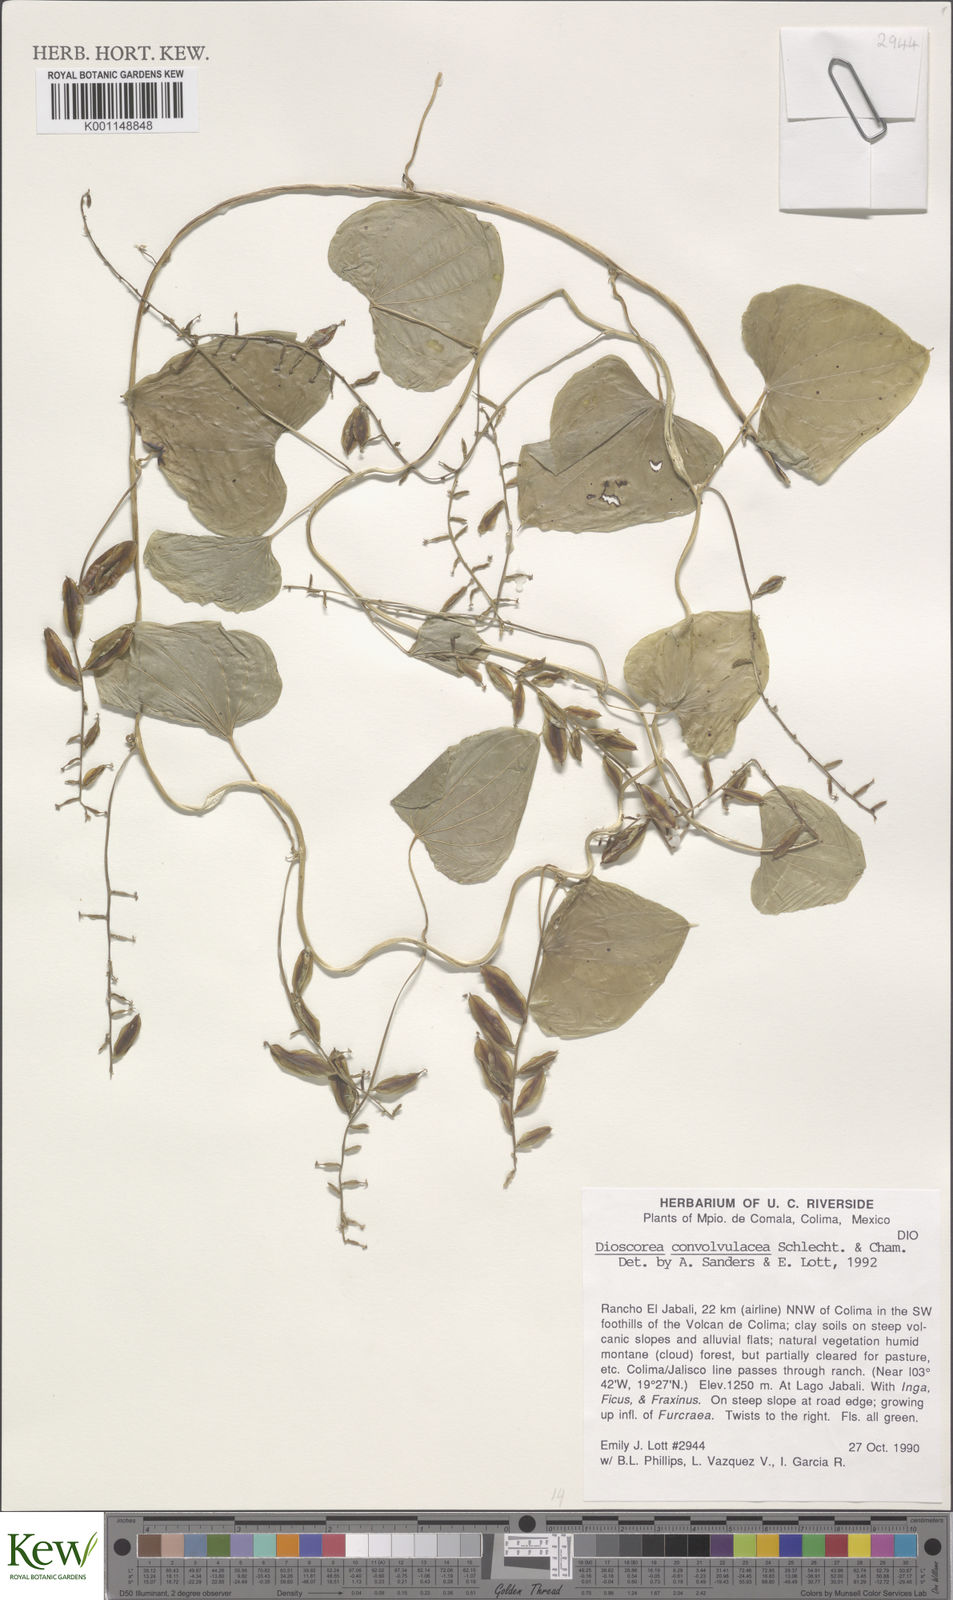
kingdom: Plantae
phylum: Tracheophyta
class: Liliopsida
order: Dioscoreales
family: Dioscoreaceae
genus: Dioscorea
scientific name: Dioscorea convolvulacea
